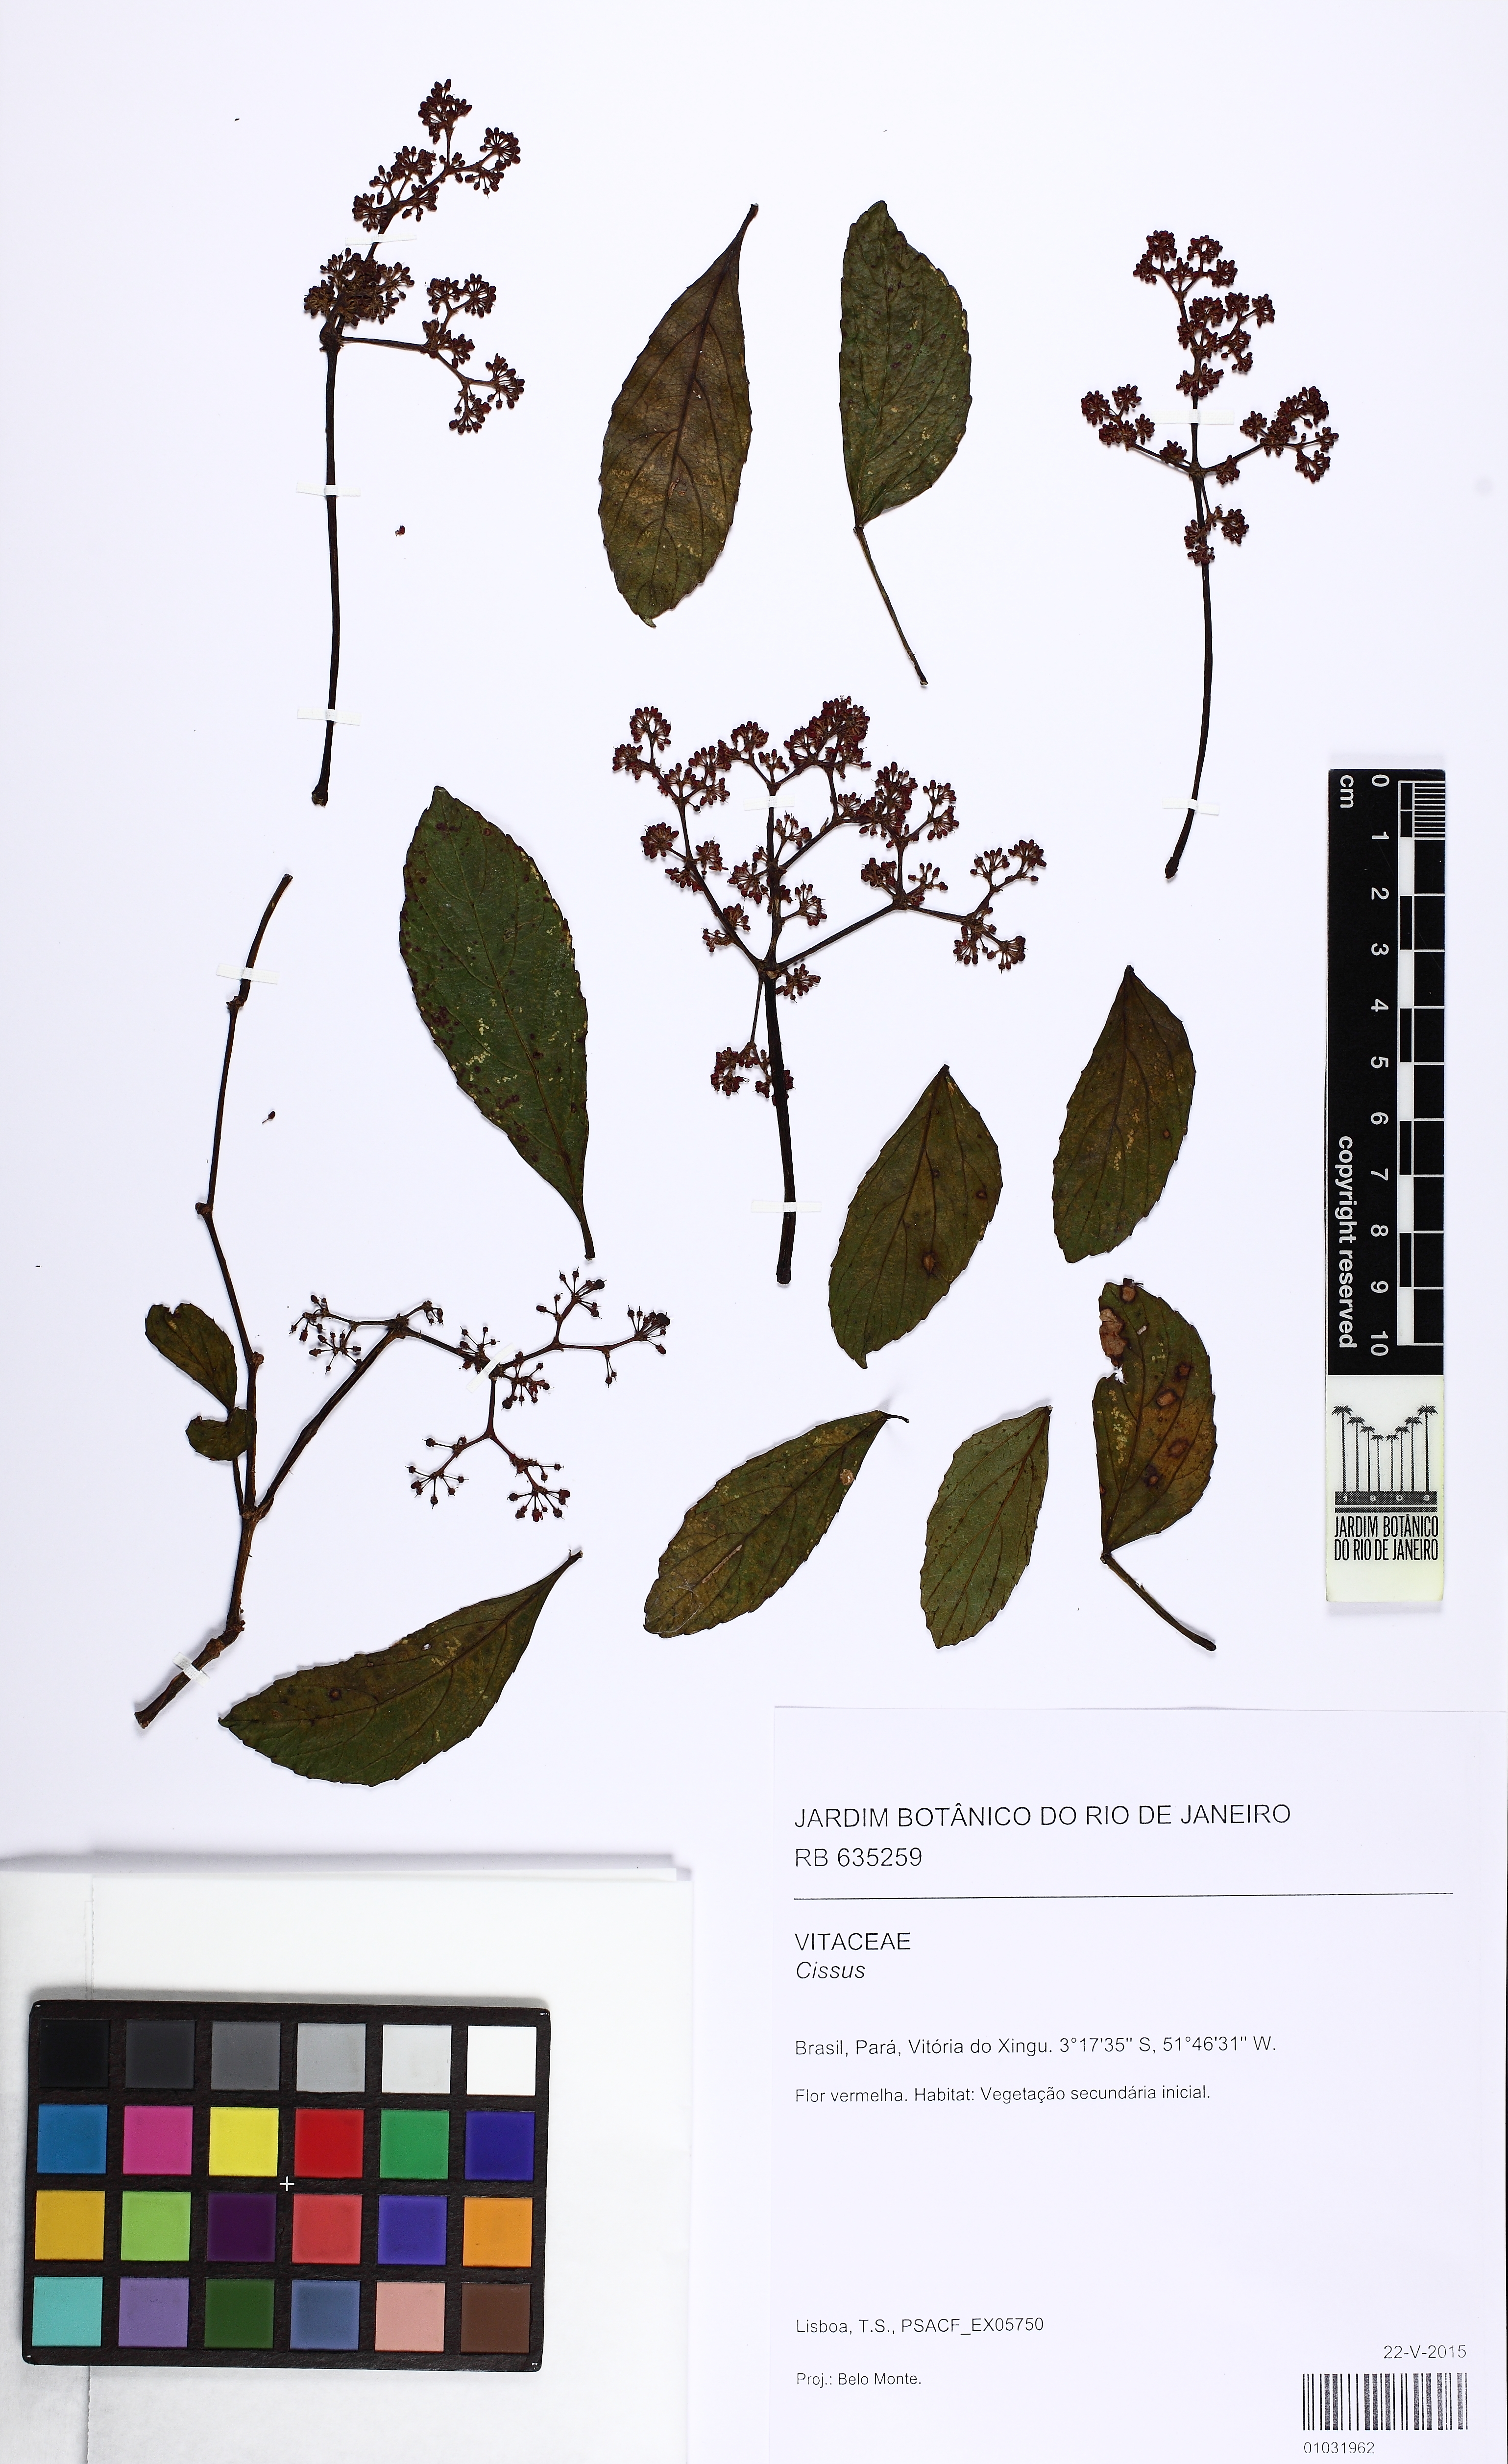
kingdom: Plantae
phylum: Tracheophyta
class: Magnoliopsida
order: Vitales
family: Vitaceae
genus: Cissus
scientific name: Cissus
